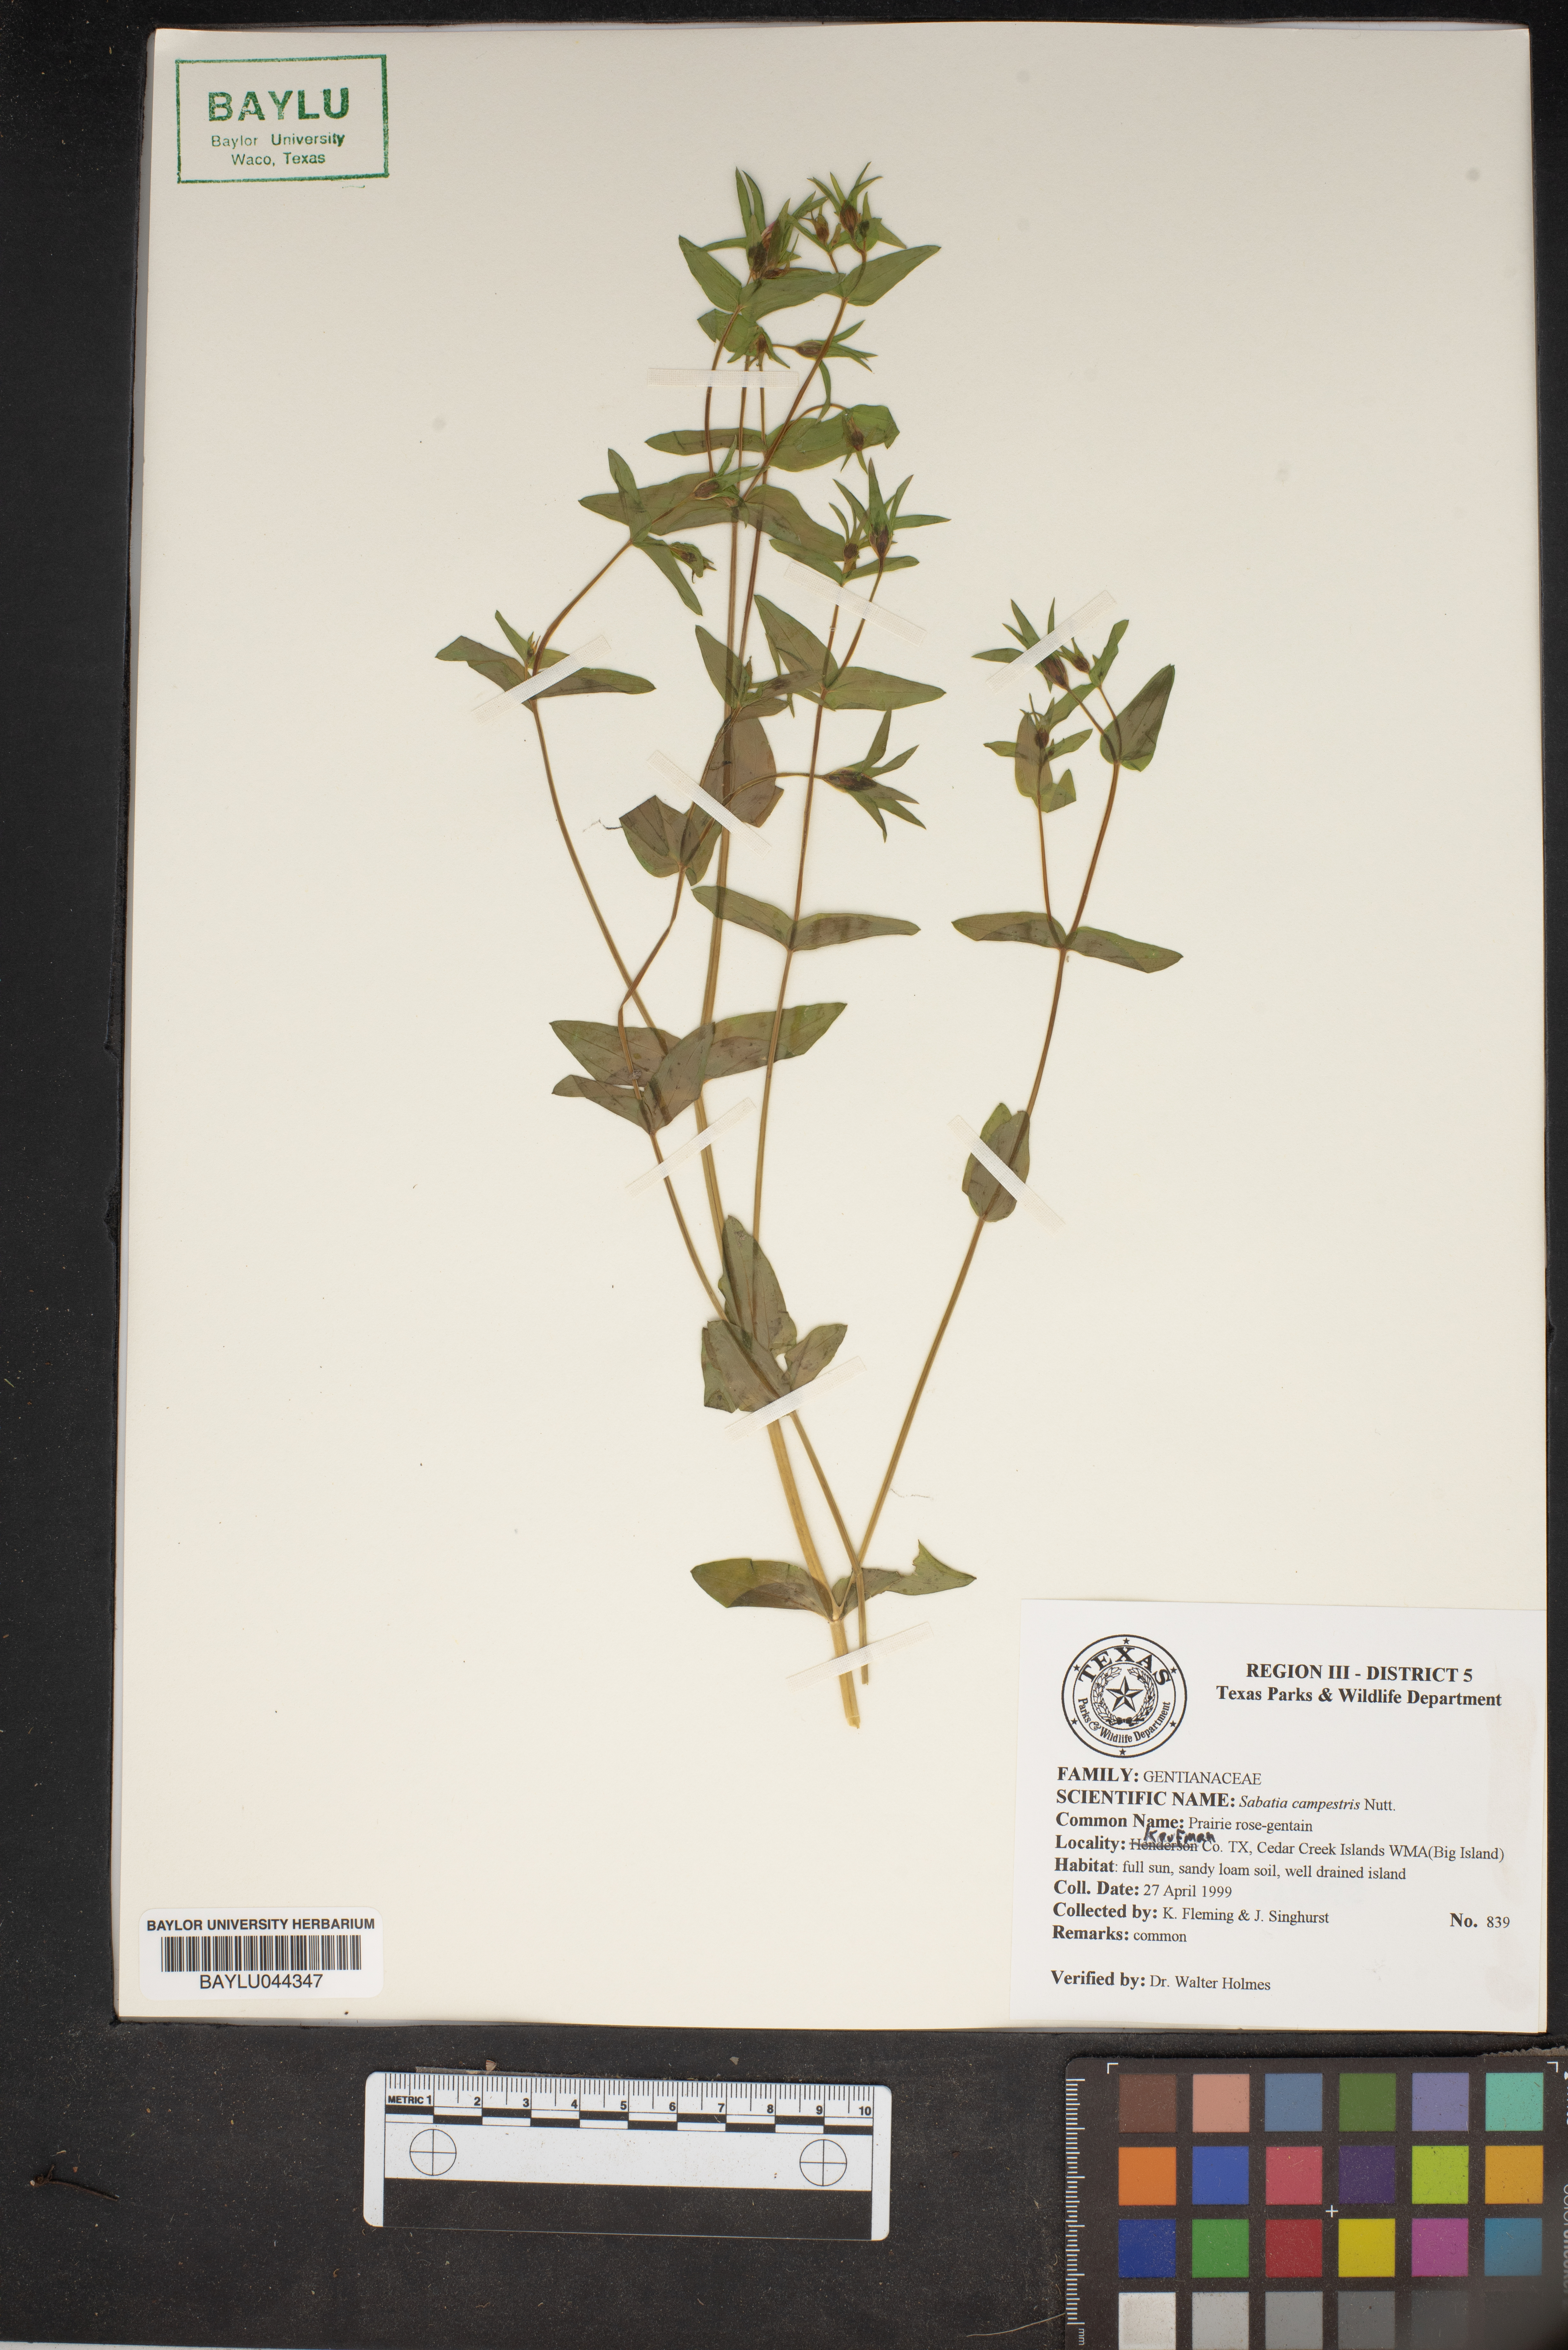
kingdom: Plantae
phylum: Tracheophyta
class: Magnoliopsida
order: Gentianales
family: Gentianaceae
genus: Sabatia
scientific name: Sabatia campestris
